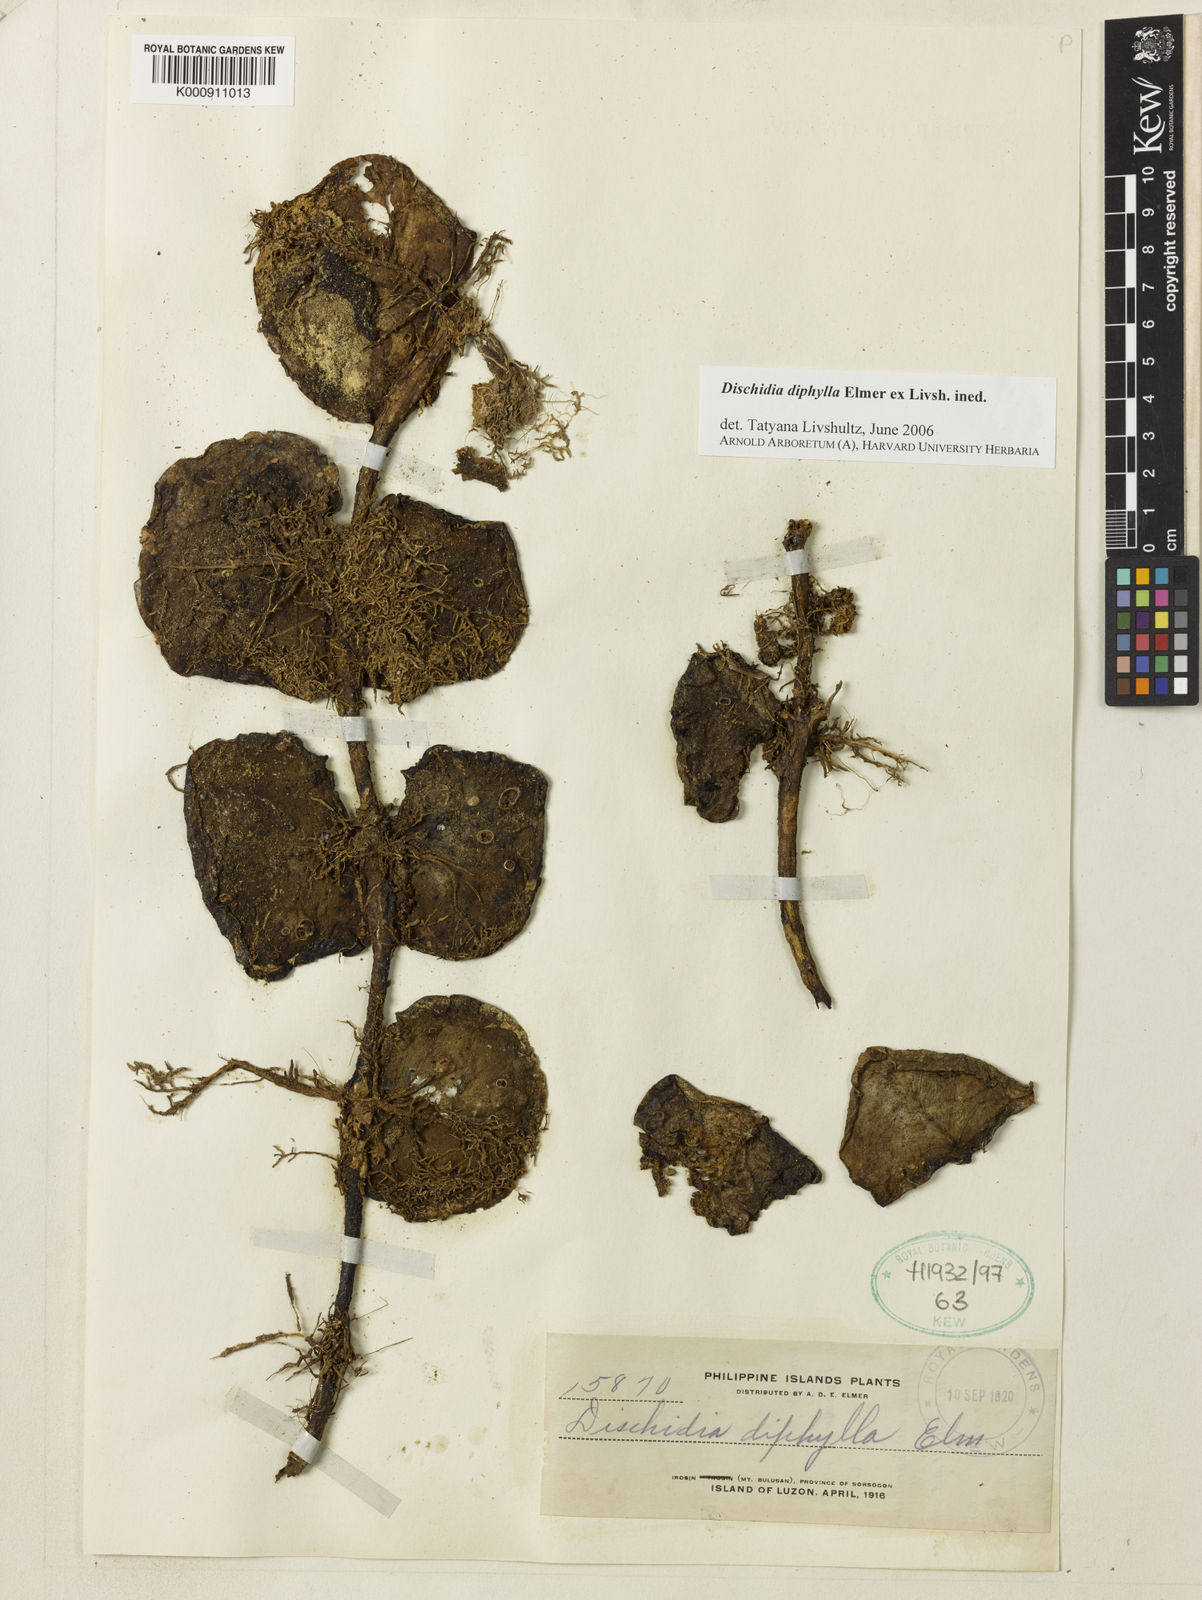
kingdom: Plantae
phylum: Tracheophyta
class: Magnoliopsida
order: Gentianales
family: Apocynaceae
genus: Dischidia
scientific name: Dischidia
